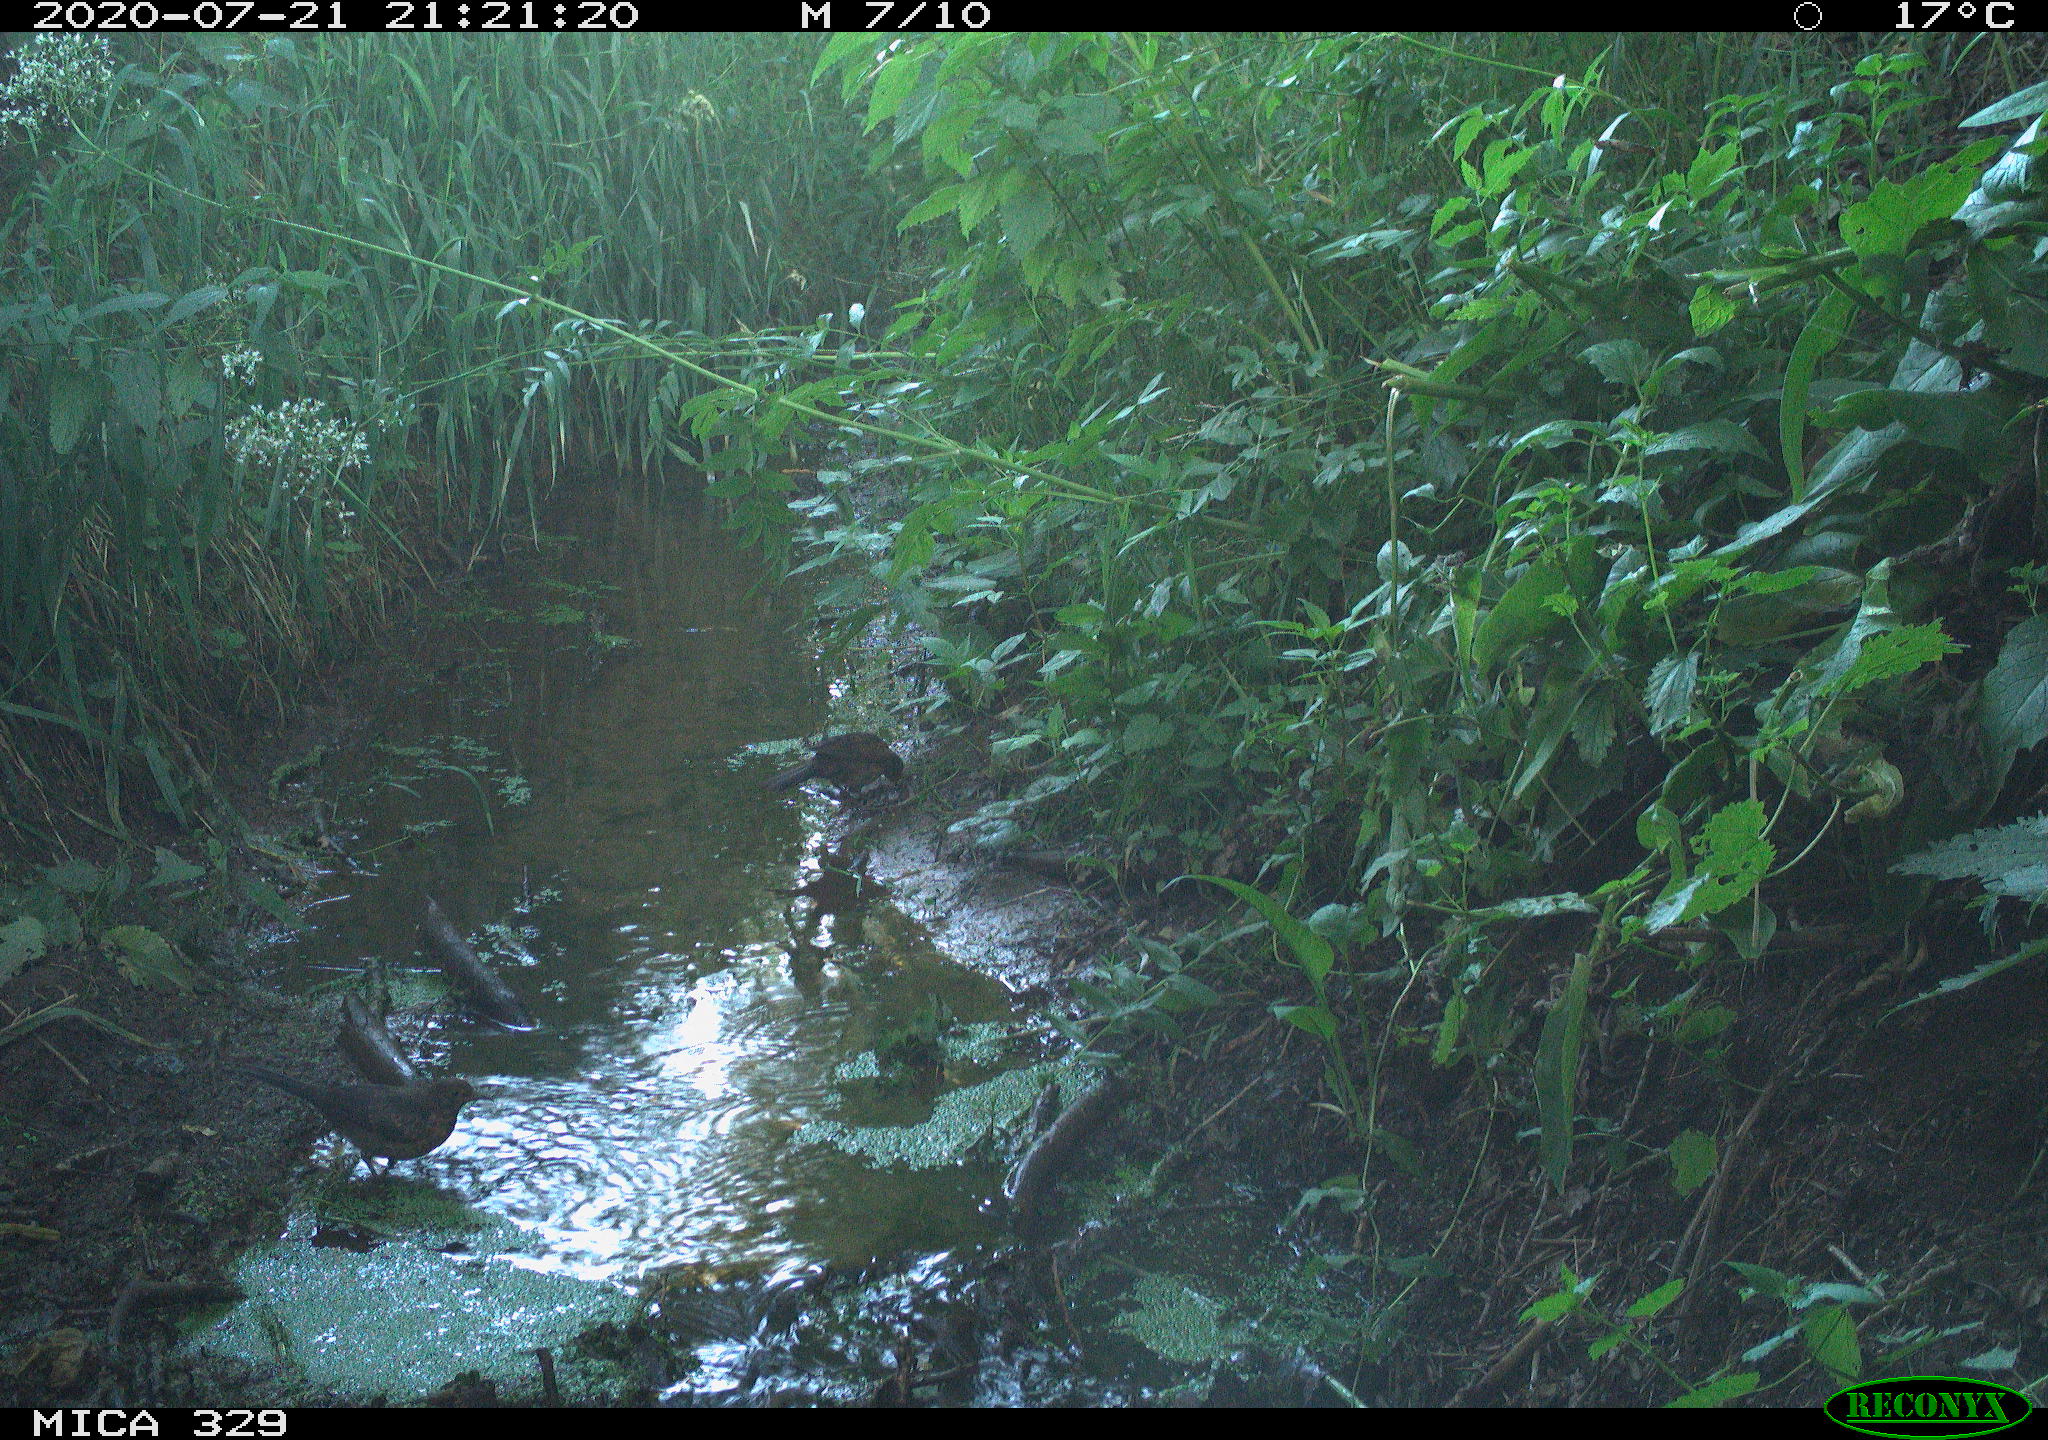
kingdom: Animalia
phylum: Chordata
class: Aves
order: Passeriformes
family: Turdidae
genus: Turdus
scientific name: Turdus philomelos
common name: Song thrush
